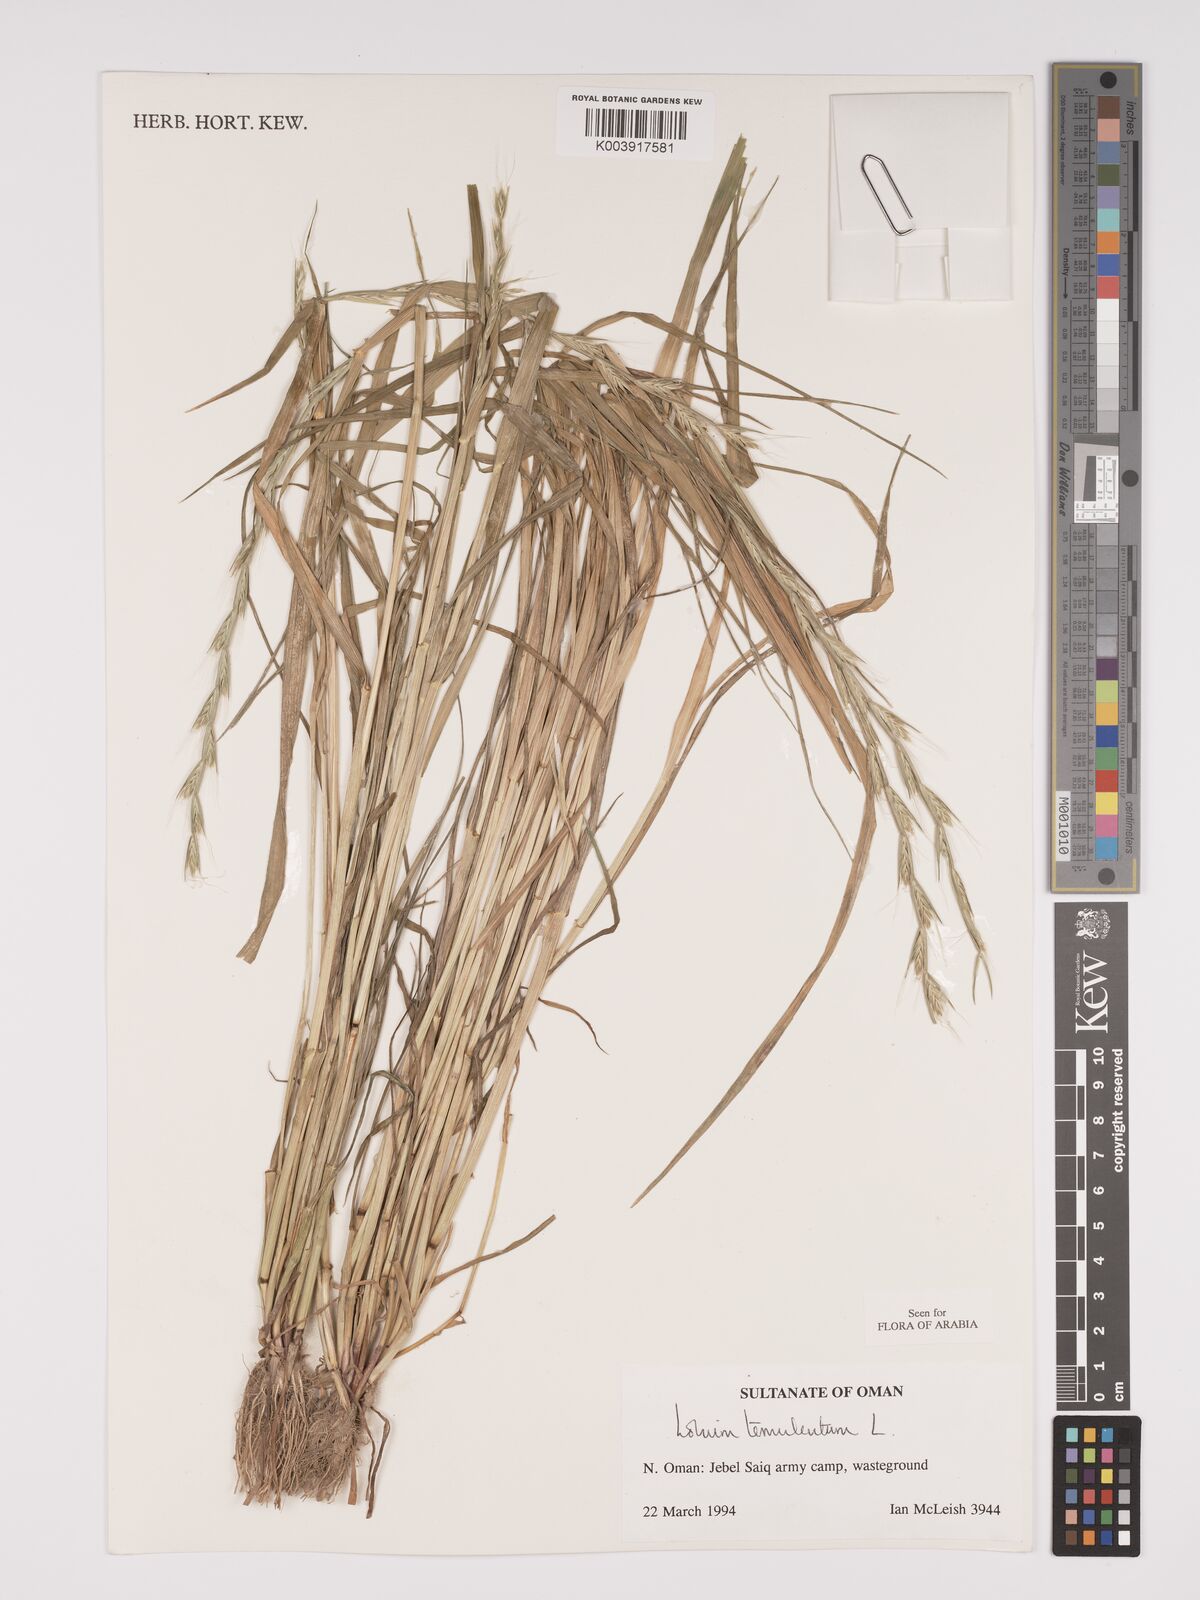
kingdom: Plantae
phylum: Tracheophyta
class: Liliopsida
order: Poales
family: Poaceae
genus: Lolium
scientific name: Lolium temulentum
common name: Darnel
